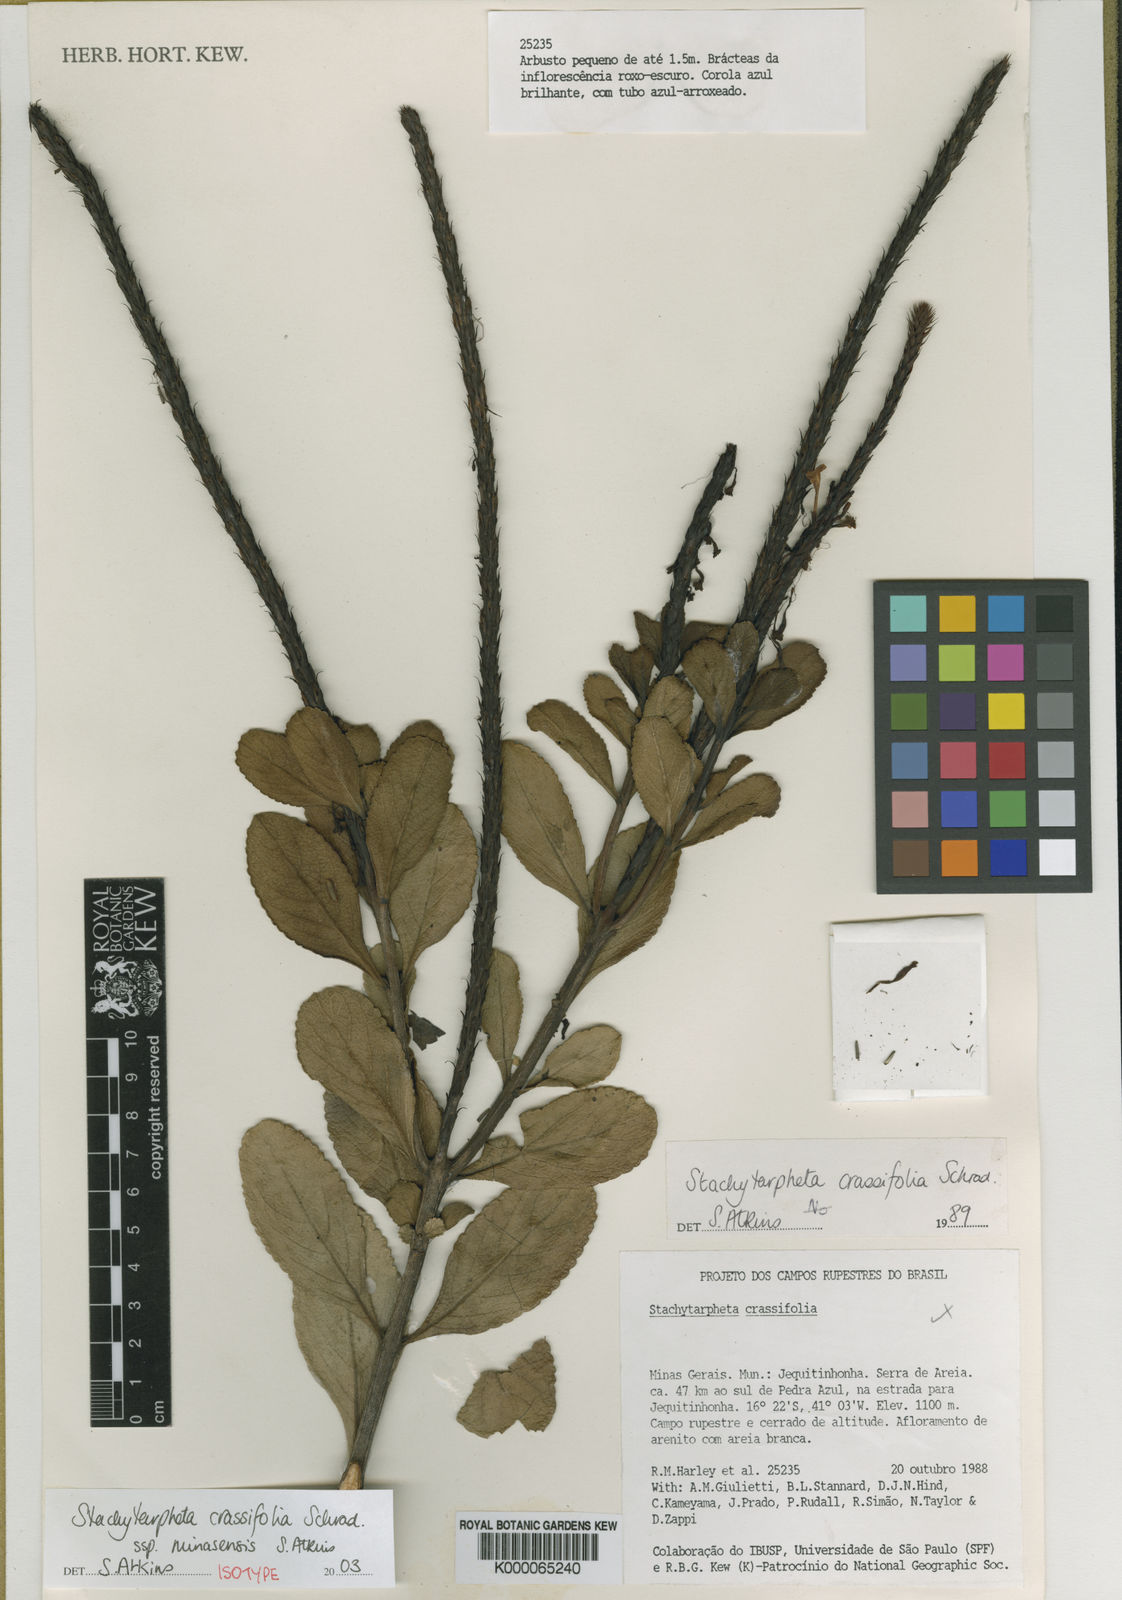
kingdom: Plantae
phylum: Tracheophyta
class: Magnoliopsida
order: Lamiales
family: Verbenaceae
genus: Stachytarpheta
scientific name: Stachytarpheta crassifolia
